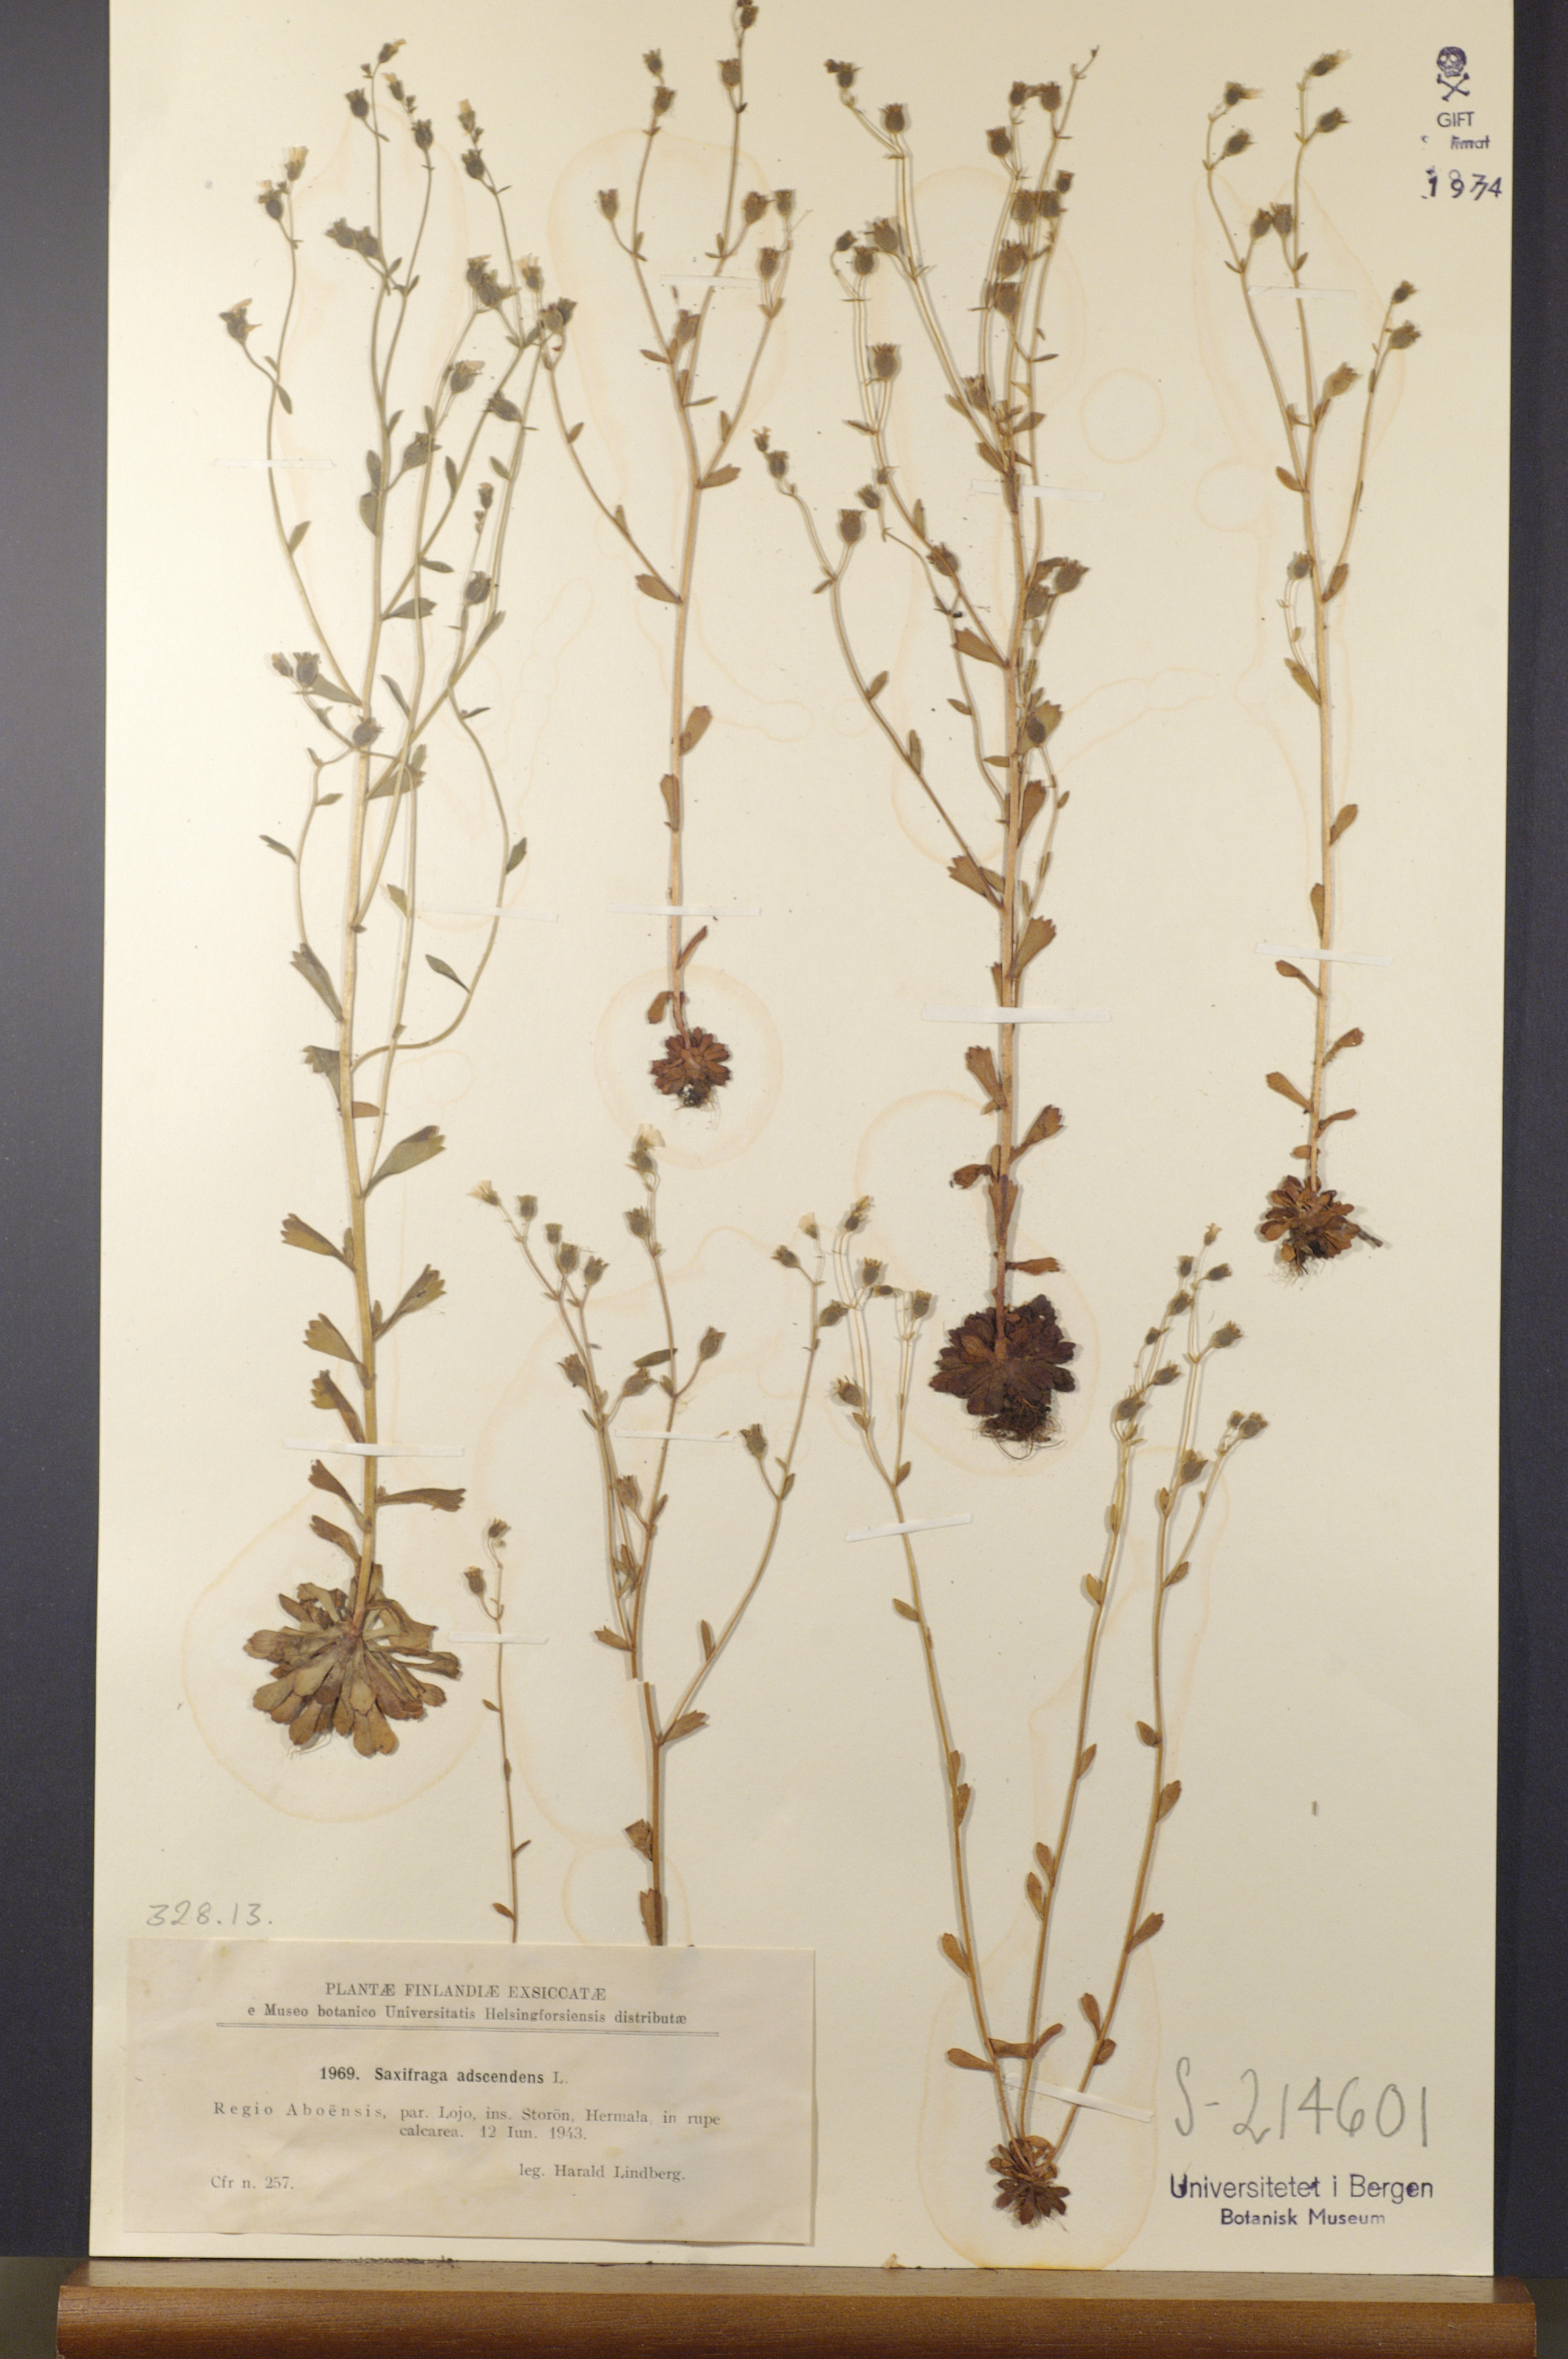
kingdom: Plantae
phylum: Tracheophyta
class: Magnoliopsida
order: Saxifragales
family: Saxifragaceae
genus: Saxifraga
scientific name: Saxifraga adscendens
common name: Ascending saxifrage
